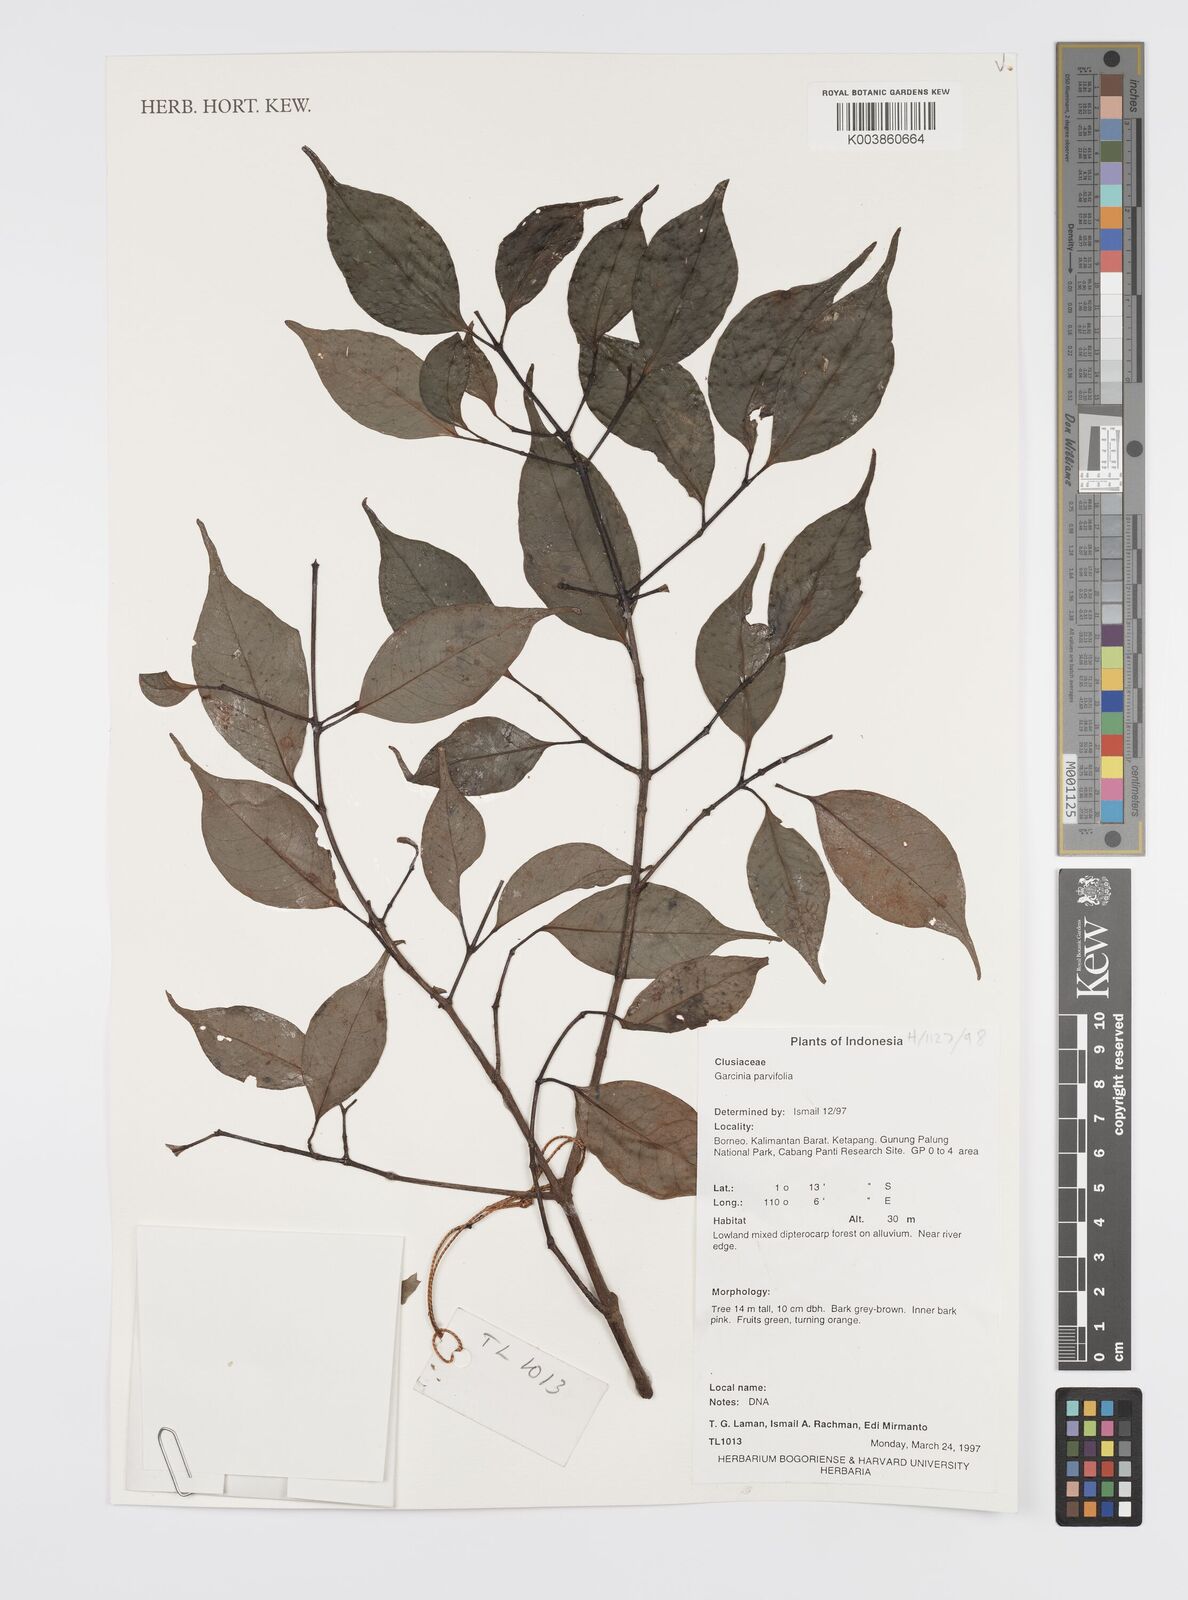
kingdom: Plantae
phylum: Tracheophyta
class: Magnoliopsida
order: Malpighiales
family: Clusiaceae
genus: Garcinia
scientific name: Garcinia parvifolia
